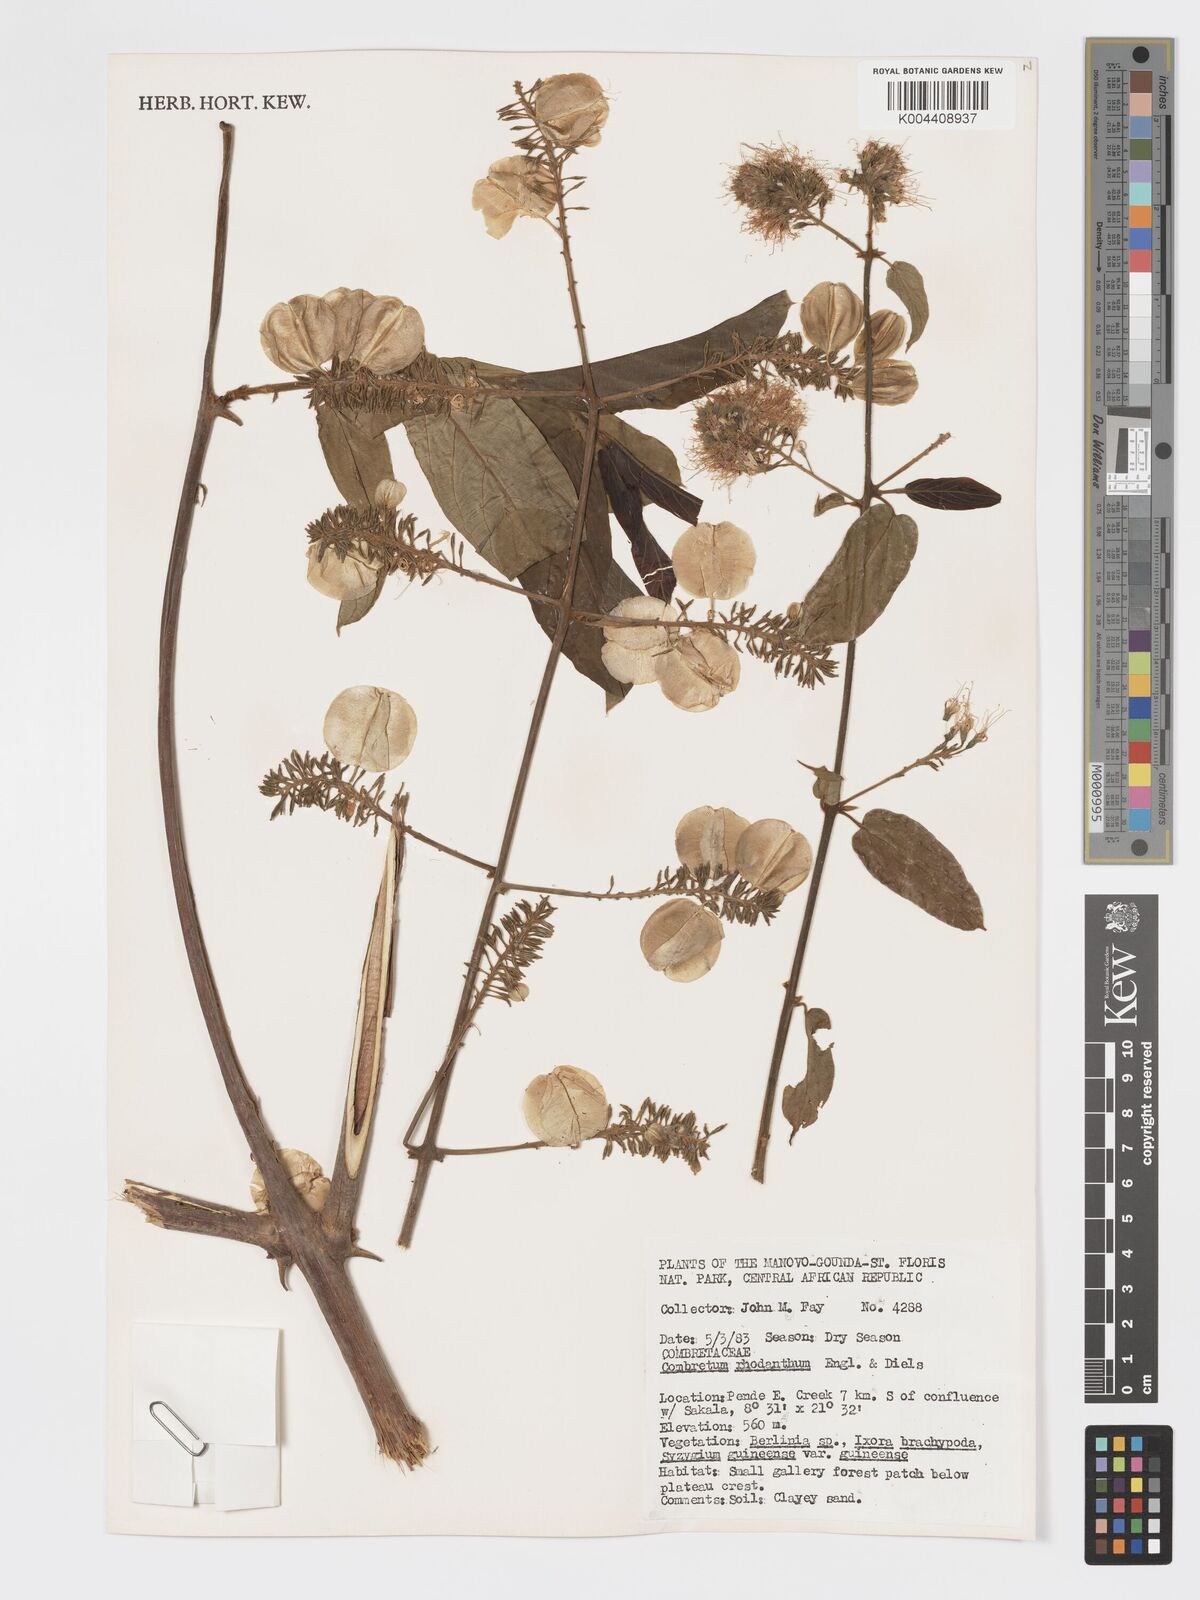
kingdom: Plantae
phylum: Tracheophyta
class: Magnoliopsida
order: Myrtales
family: Combretaceae
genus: Combretum
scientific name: Combretum comosum
